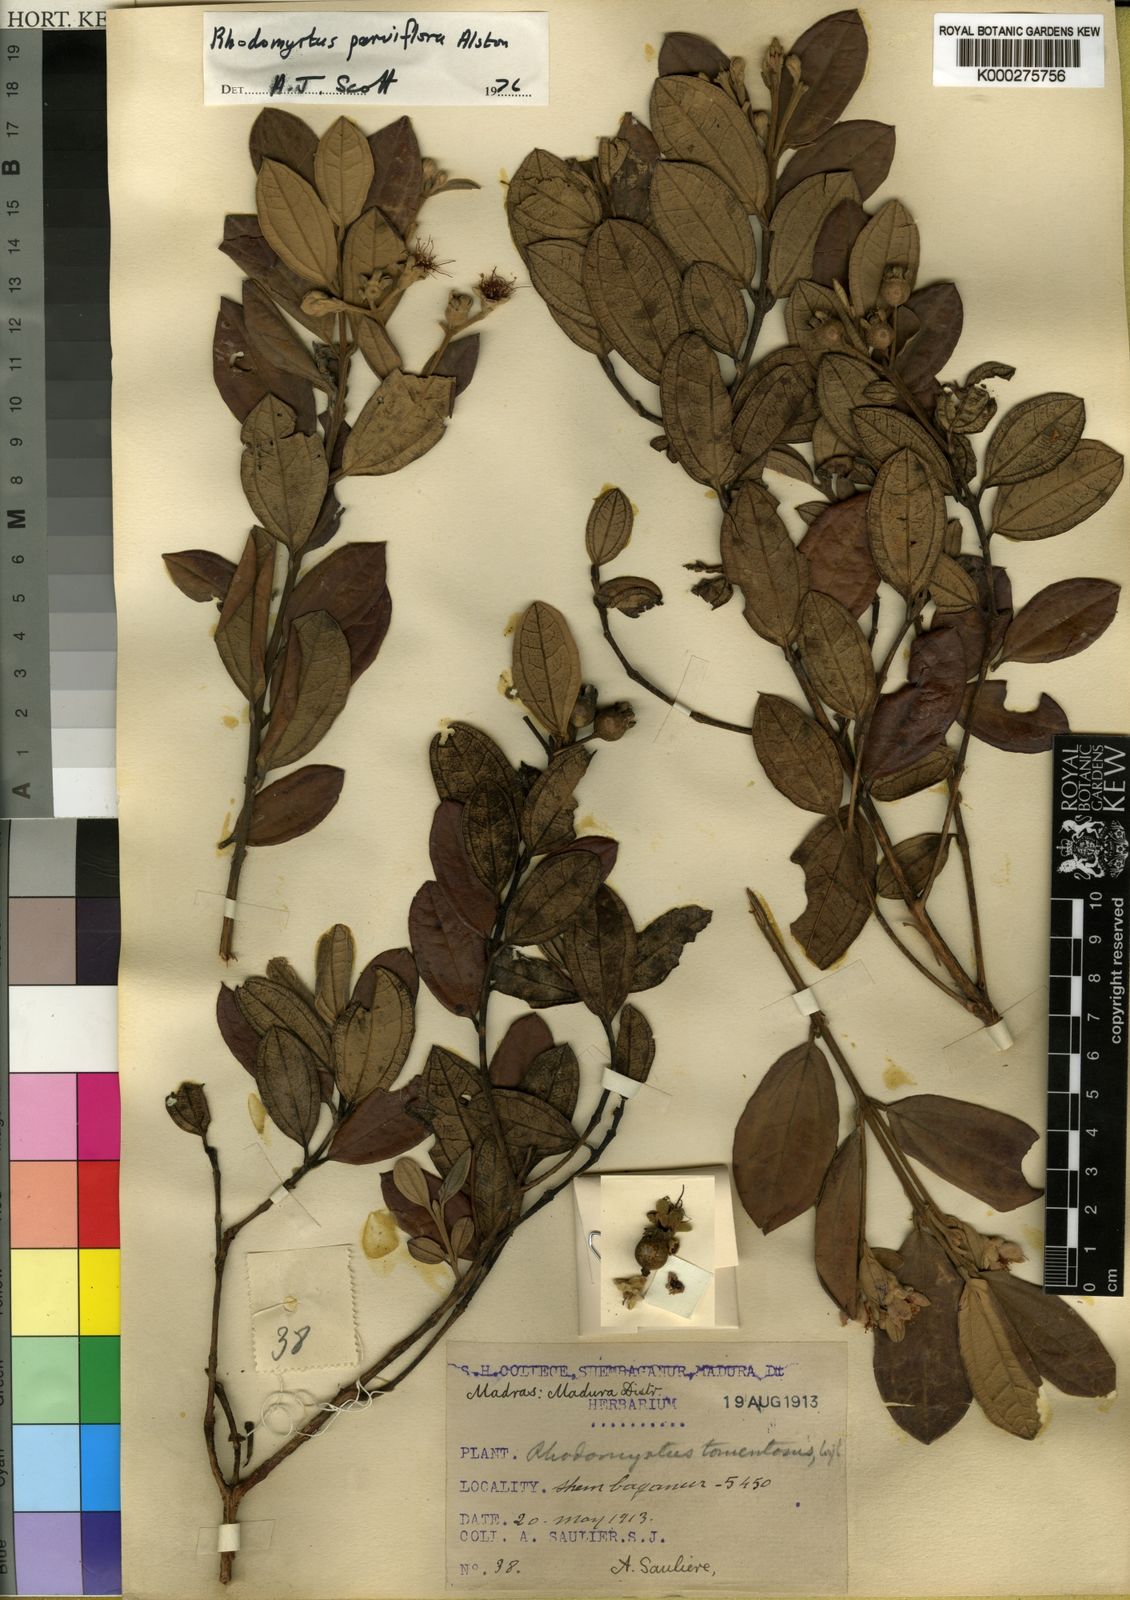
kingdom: Plantae
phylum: Tracheophyta
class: Magnoliopsida
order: Myrtales
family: Myrtaceae
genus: Rhodomyrtus
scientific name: Rhodomyrtus tomentosa
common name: Rose myrtle
